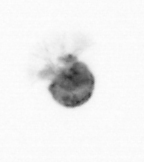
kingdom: Animalia
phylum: Arthropoda
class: Copepoda
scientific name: Copepoda
